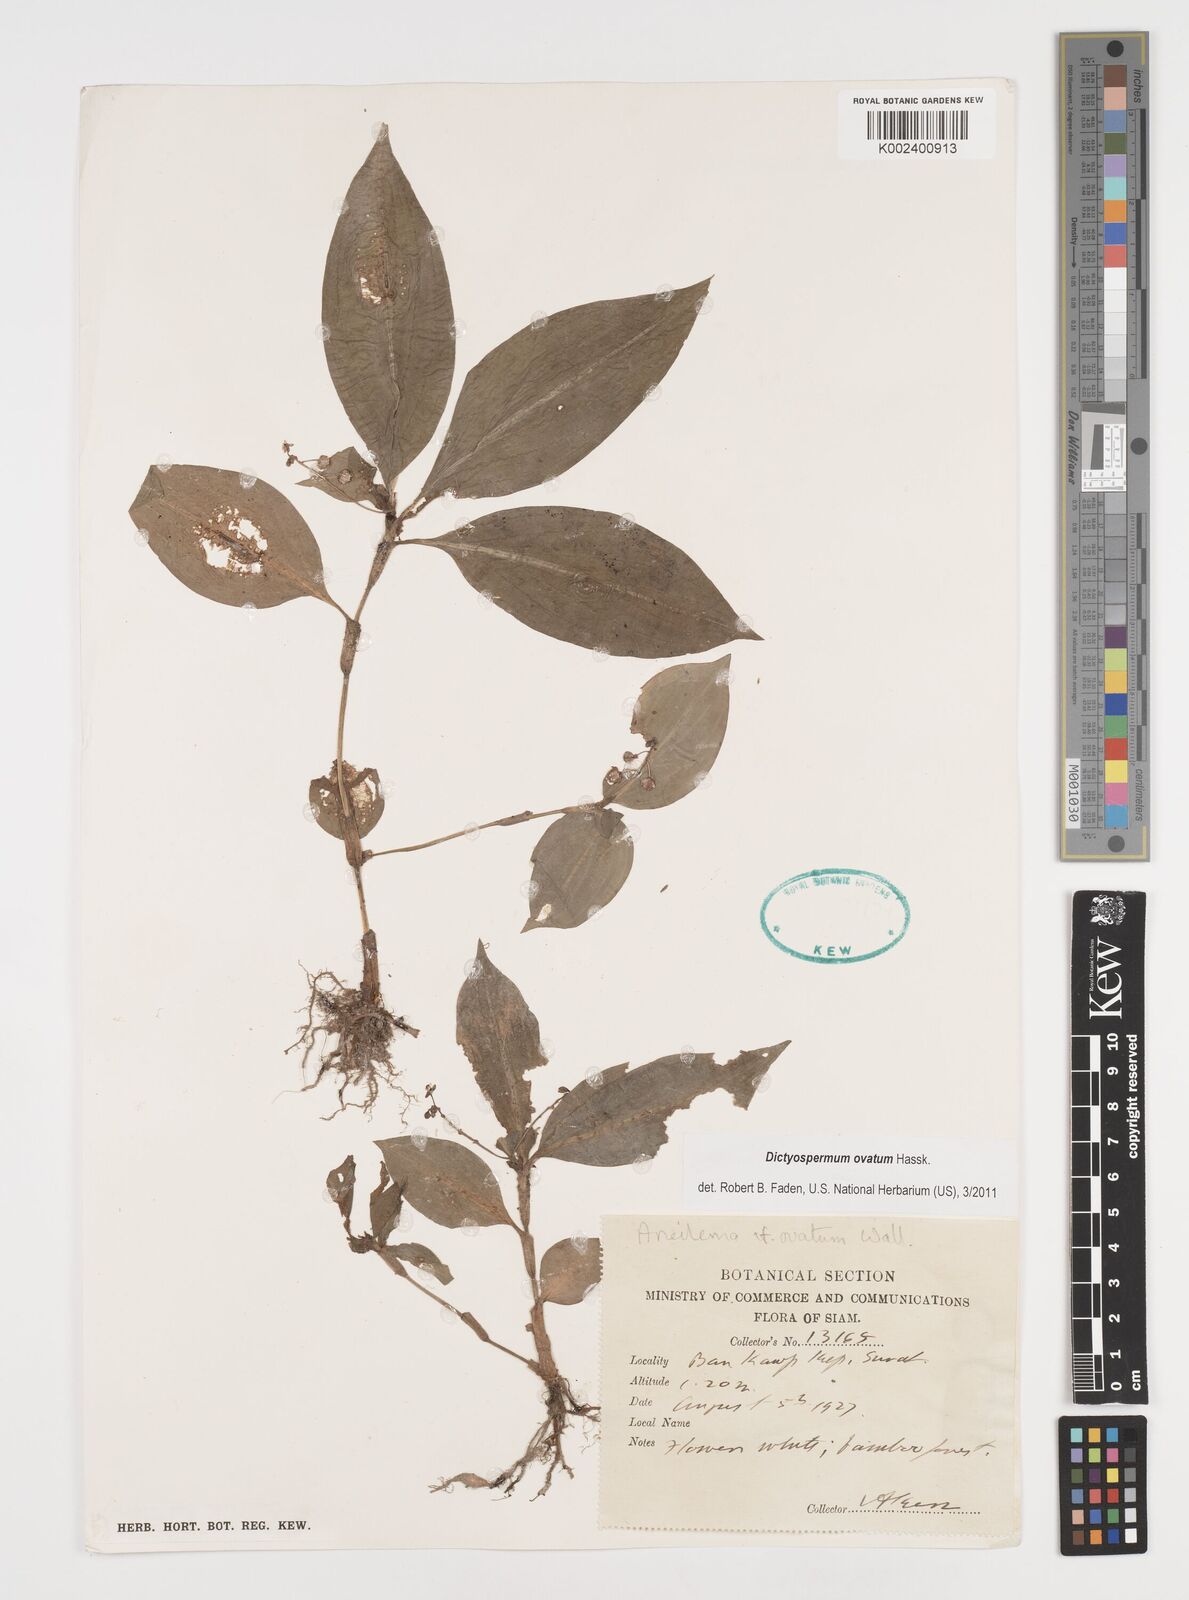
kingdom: Plantae
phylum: Tracheophyta
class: Liliopsida
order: Commelinales
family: Commelinaceae
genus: Dictyospermum
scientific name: Dictyospermum ovatum
